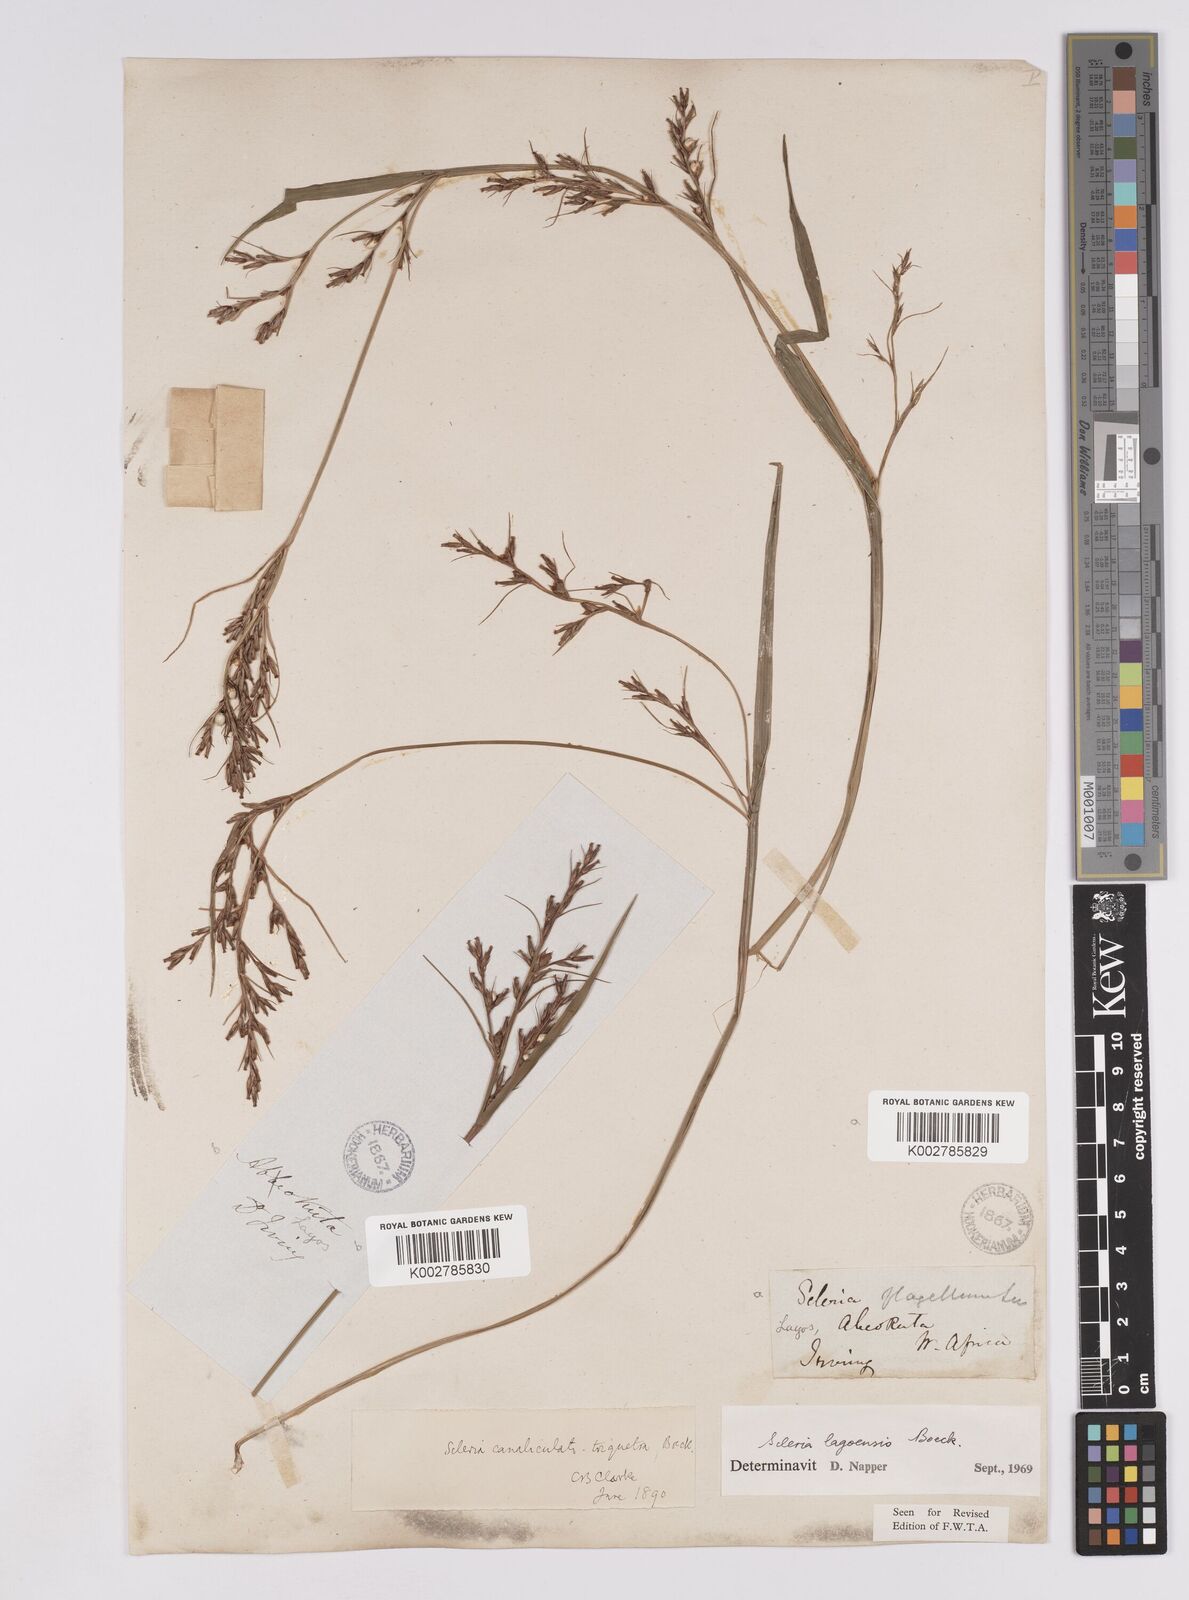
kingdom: Plantae
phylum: Tracheophyta
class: Liliopsida
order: Poales
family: Cyperaceae
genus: Scleria
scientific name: Scleria lagoensis
